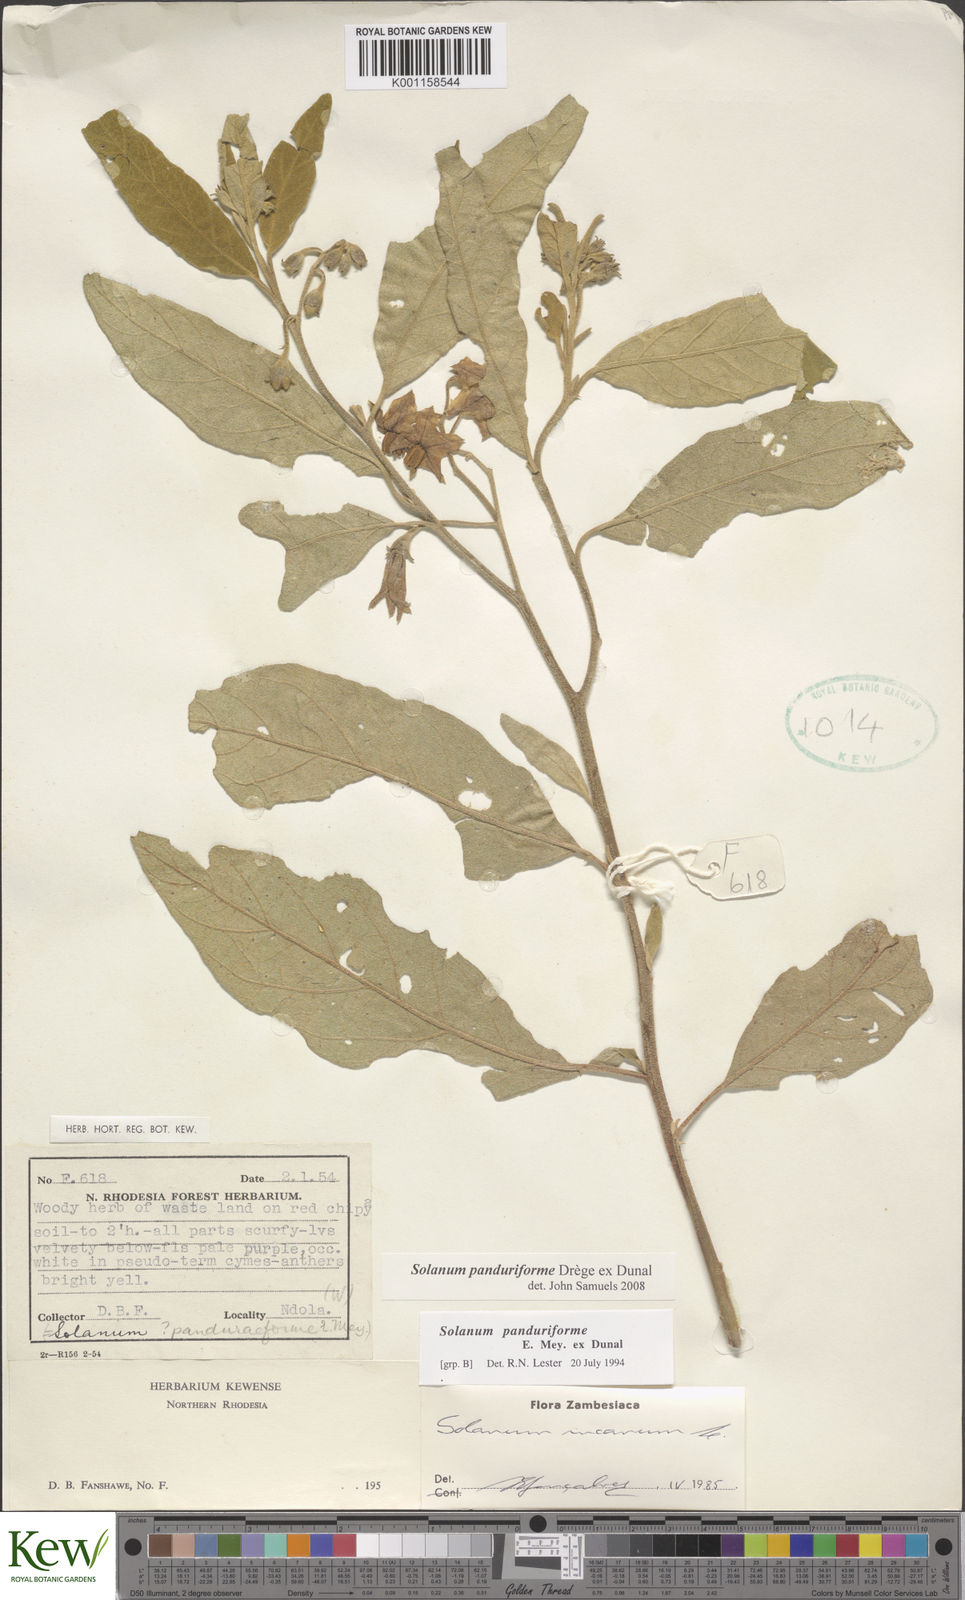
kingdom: Plantae
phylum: Tracheophyta
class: Magnoliopsida
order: Solanales
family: Solanaceae
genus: Solanum
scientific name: Solanum campylacanthum
